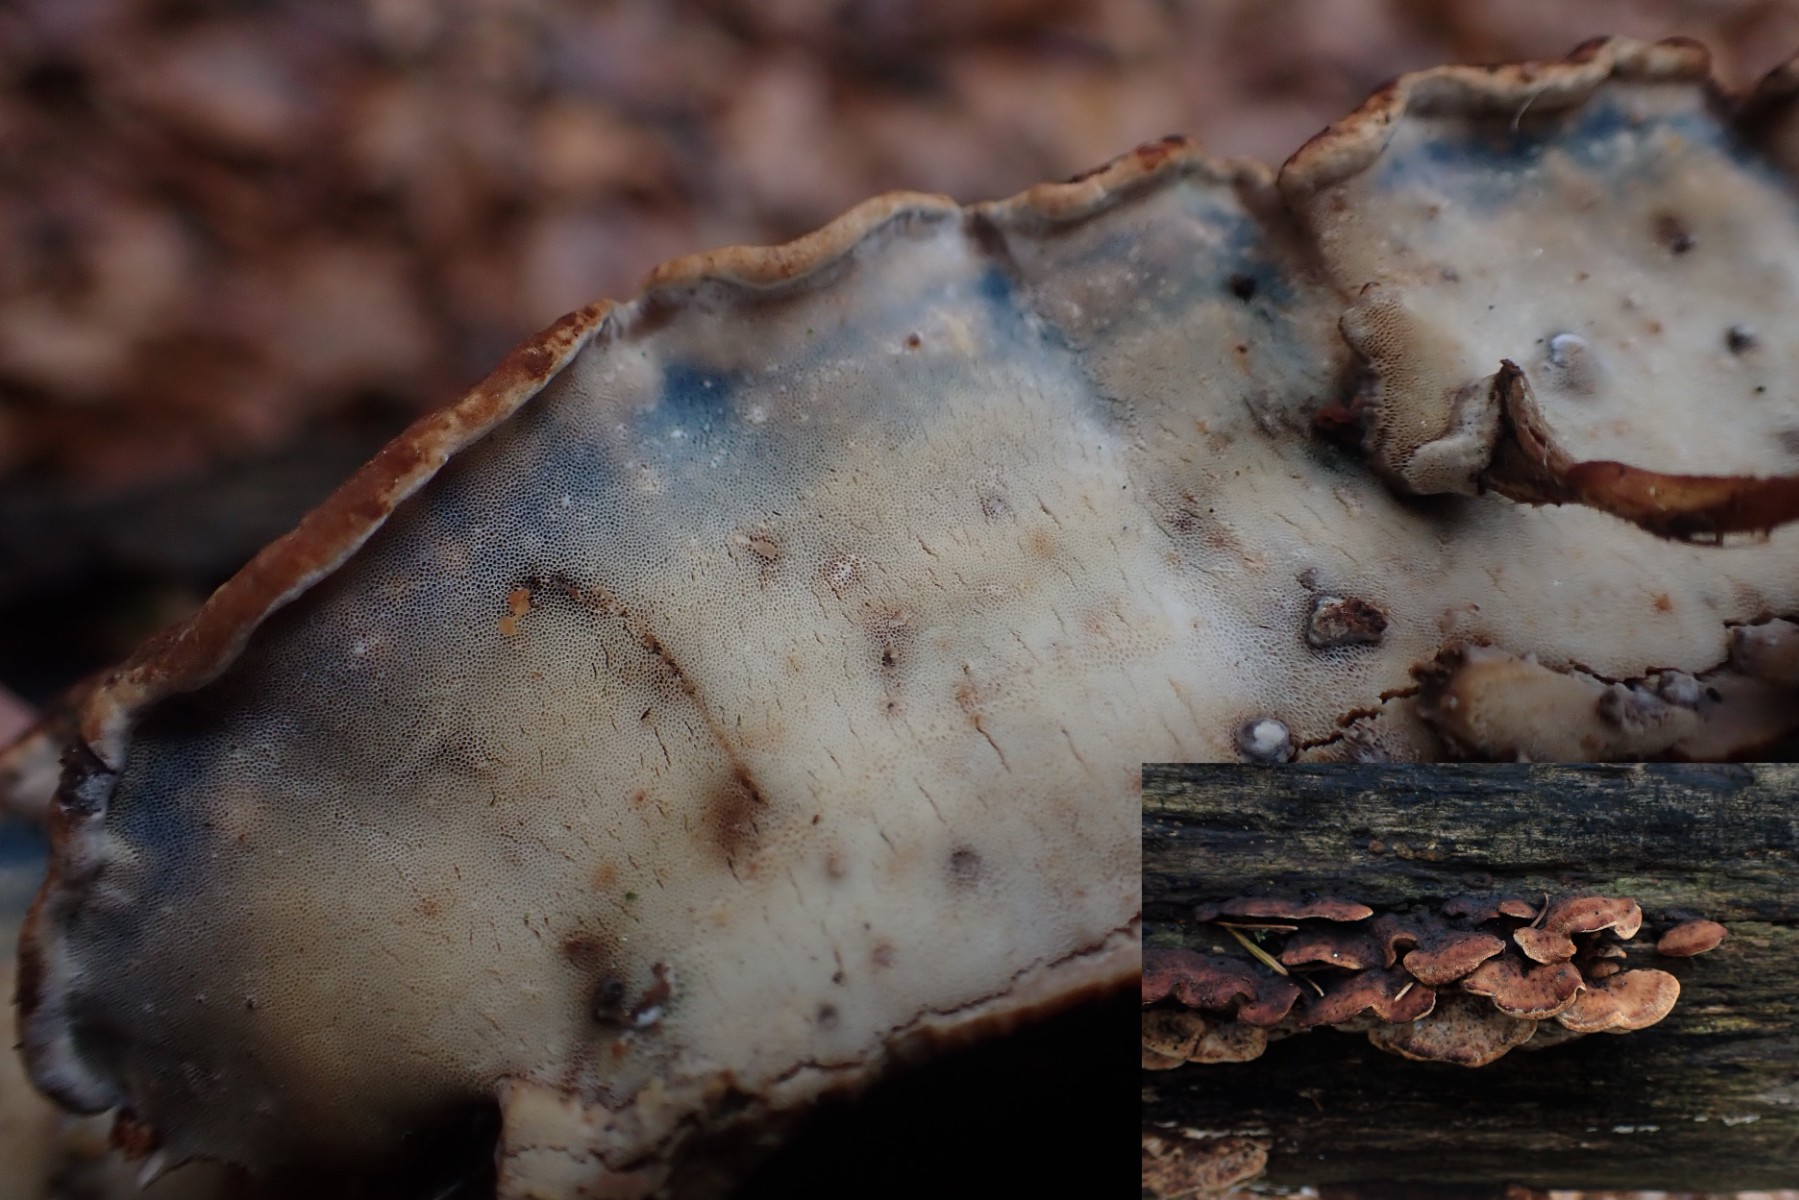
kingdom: Fungi
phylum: Basidiomycota
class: Agaricomycetes
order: Polyporales
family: Incrustoporiaceae
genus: Skeletocutis
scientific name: Skeletocutis nemoralis
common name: stor krystalporesvamp
